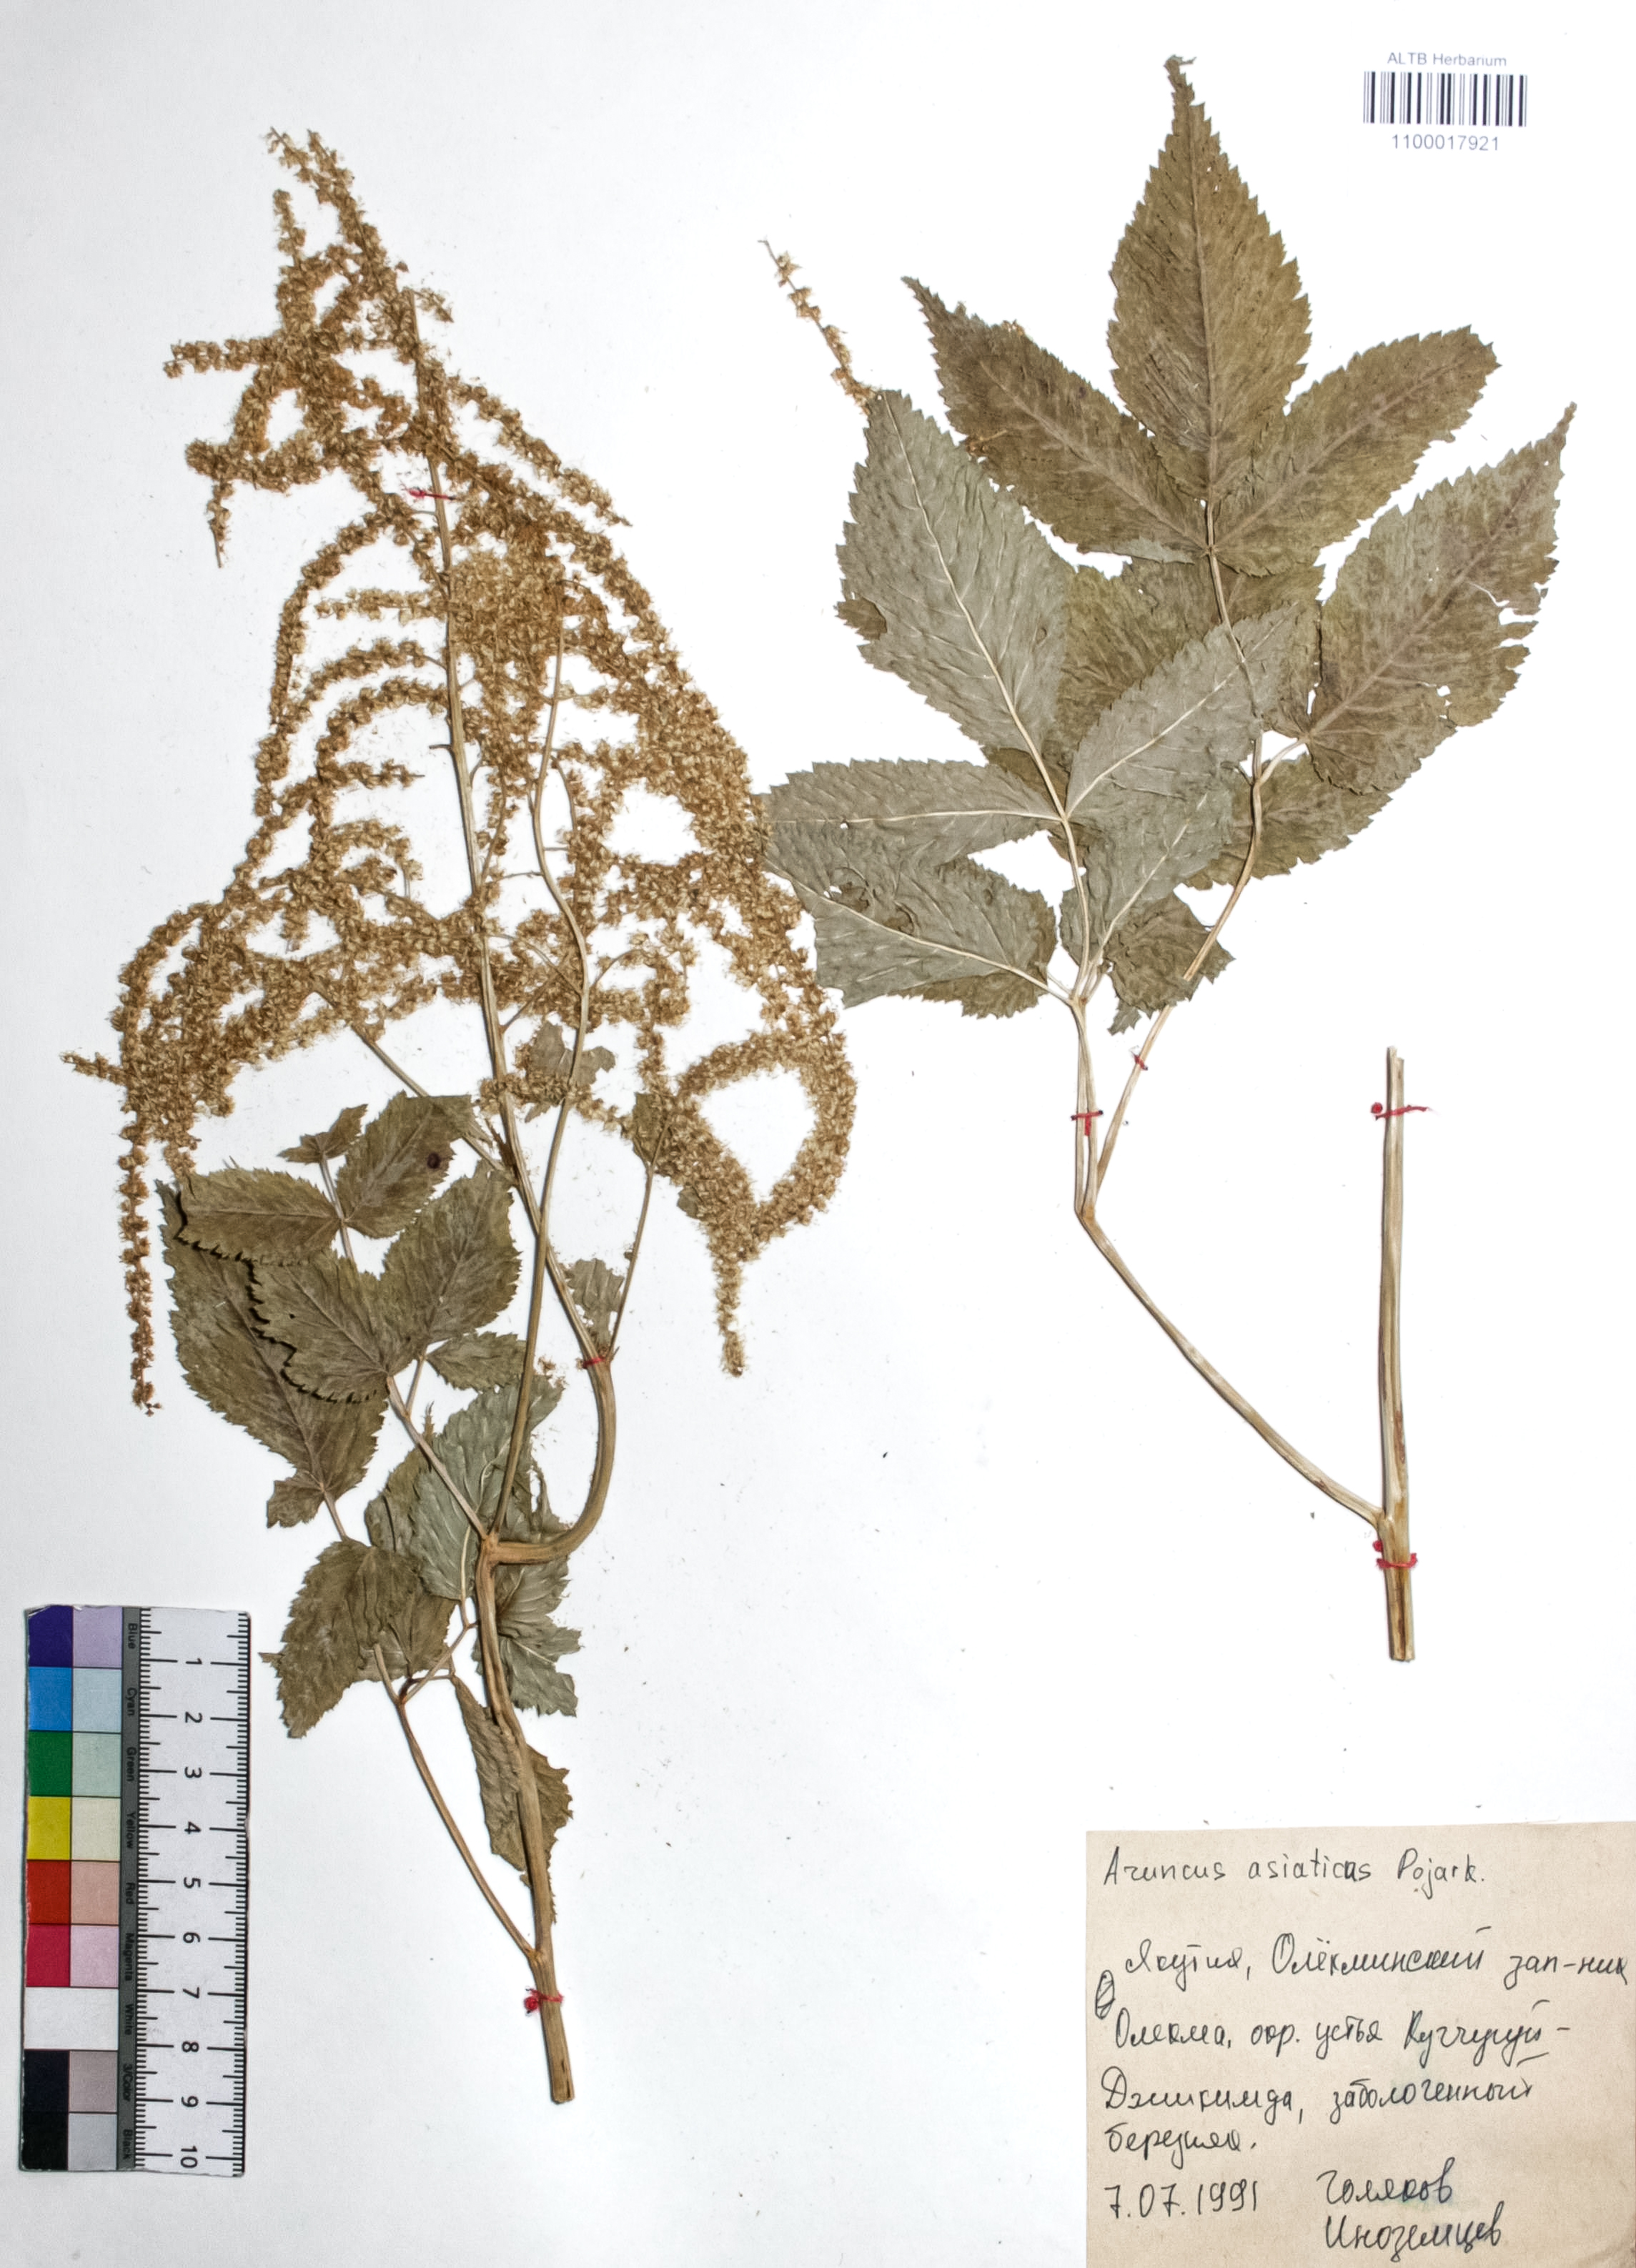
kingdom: Plantae
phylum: Tracheophyta
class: Magnoliopsida
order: Rosales
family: Rosaceae
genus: Aruncus
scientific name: Aruncus sylvester
